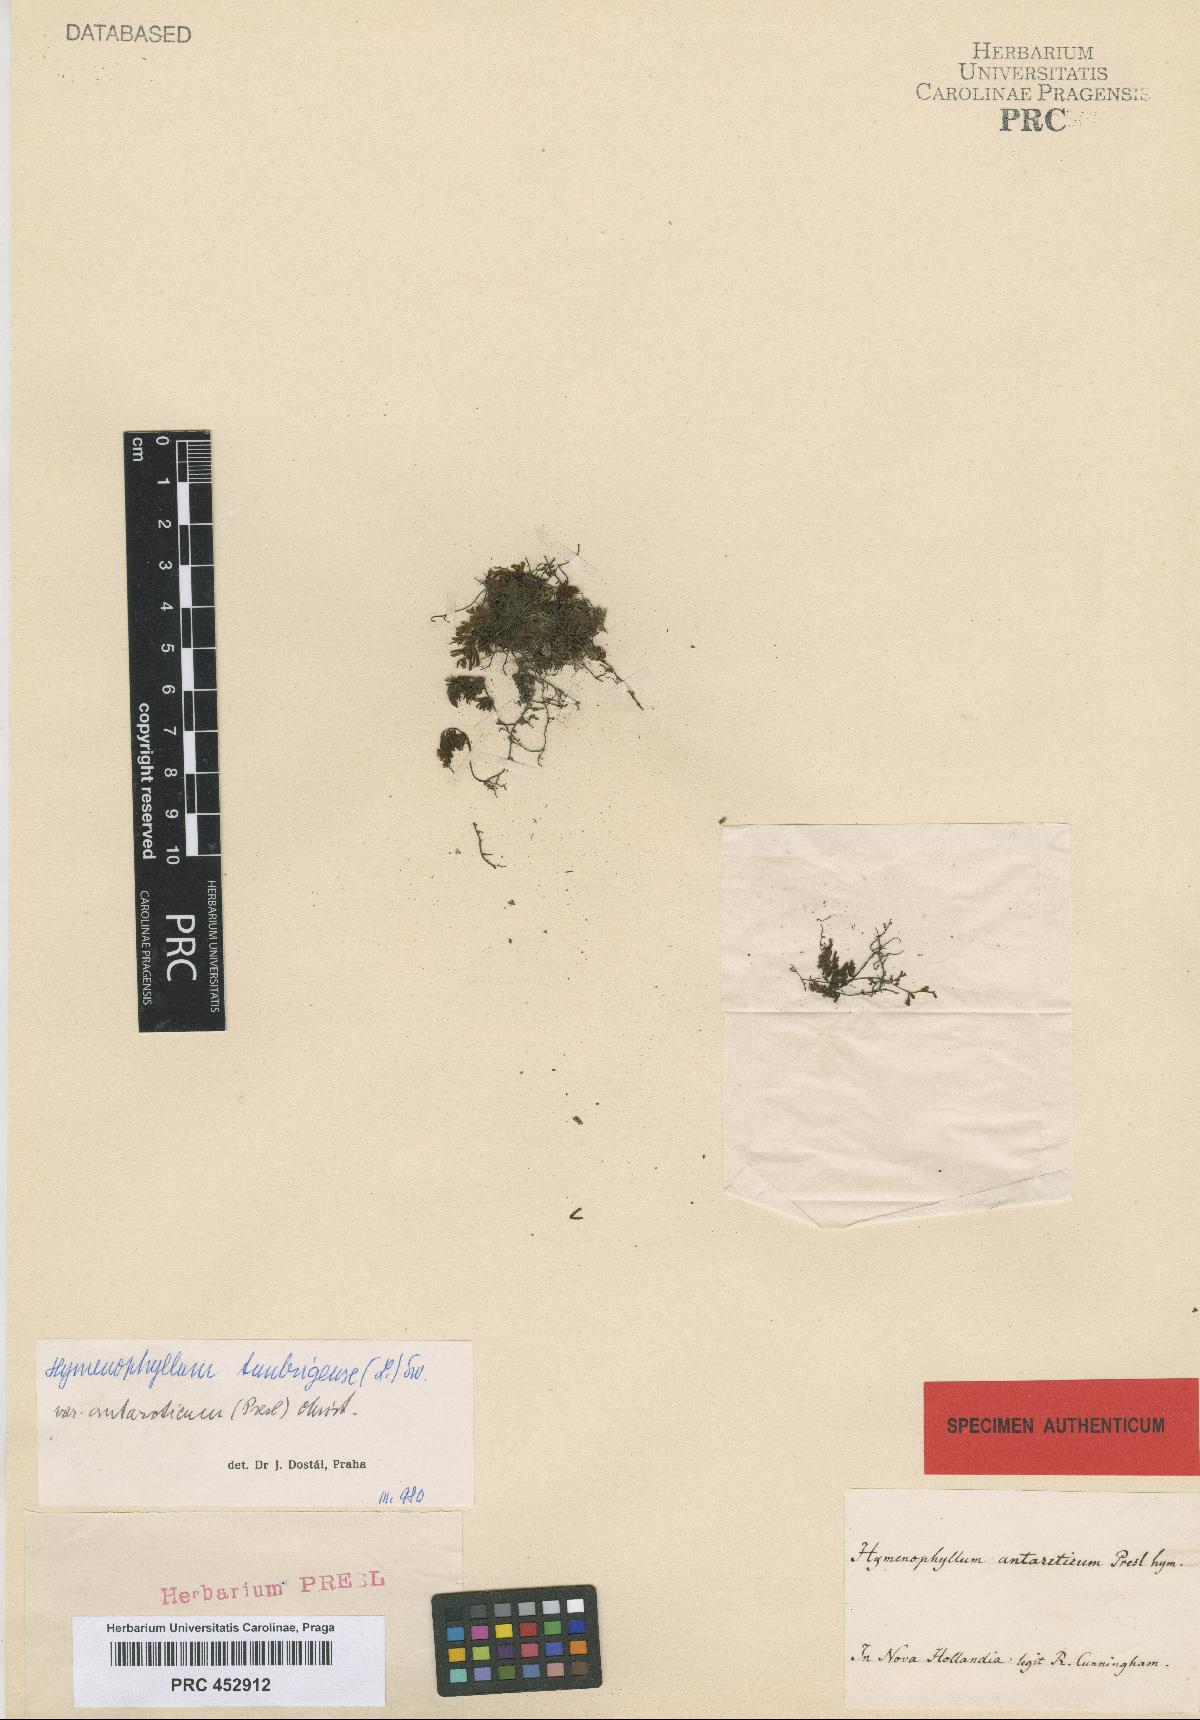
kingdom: Plantae
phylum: Tracheophyta
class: Polypodiopsida
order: Hymenophyllales
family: Hymenophyllaceae
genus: Hymenophyllum
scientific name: Hymenophyllum cupressiforme
